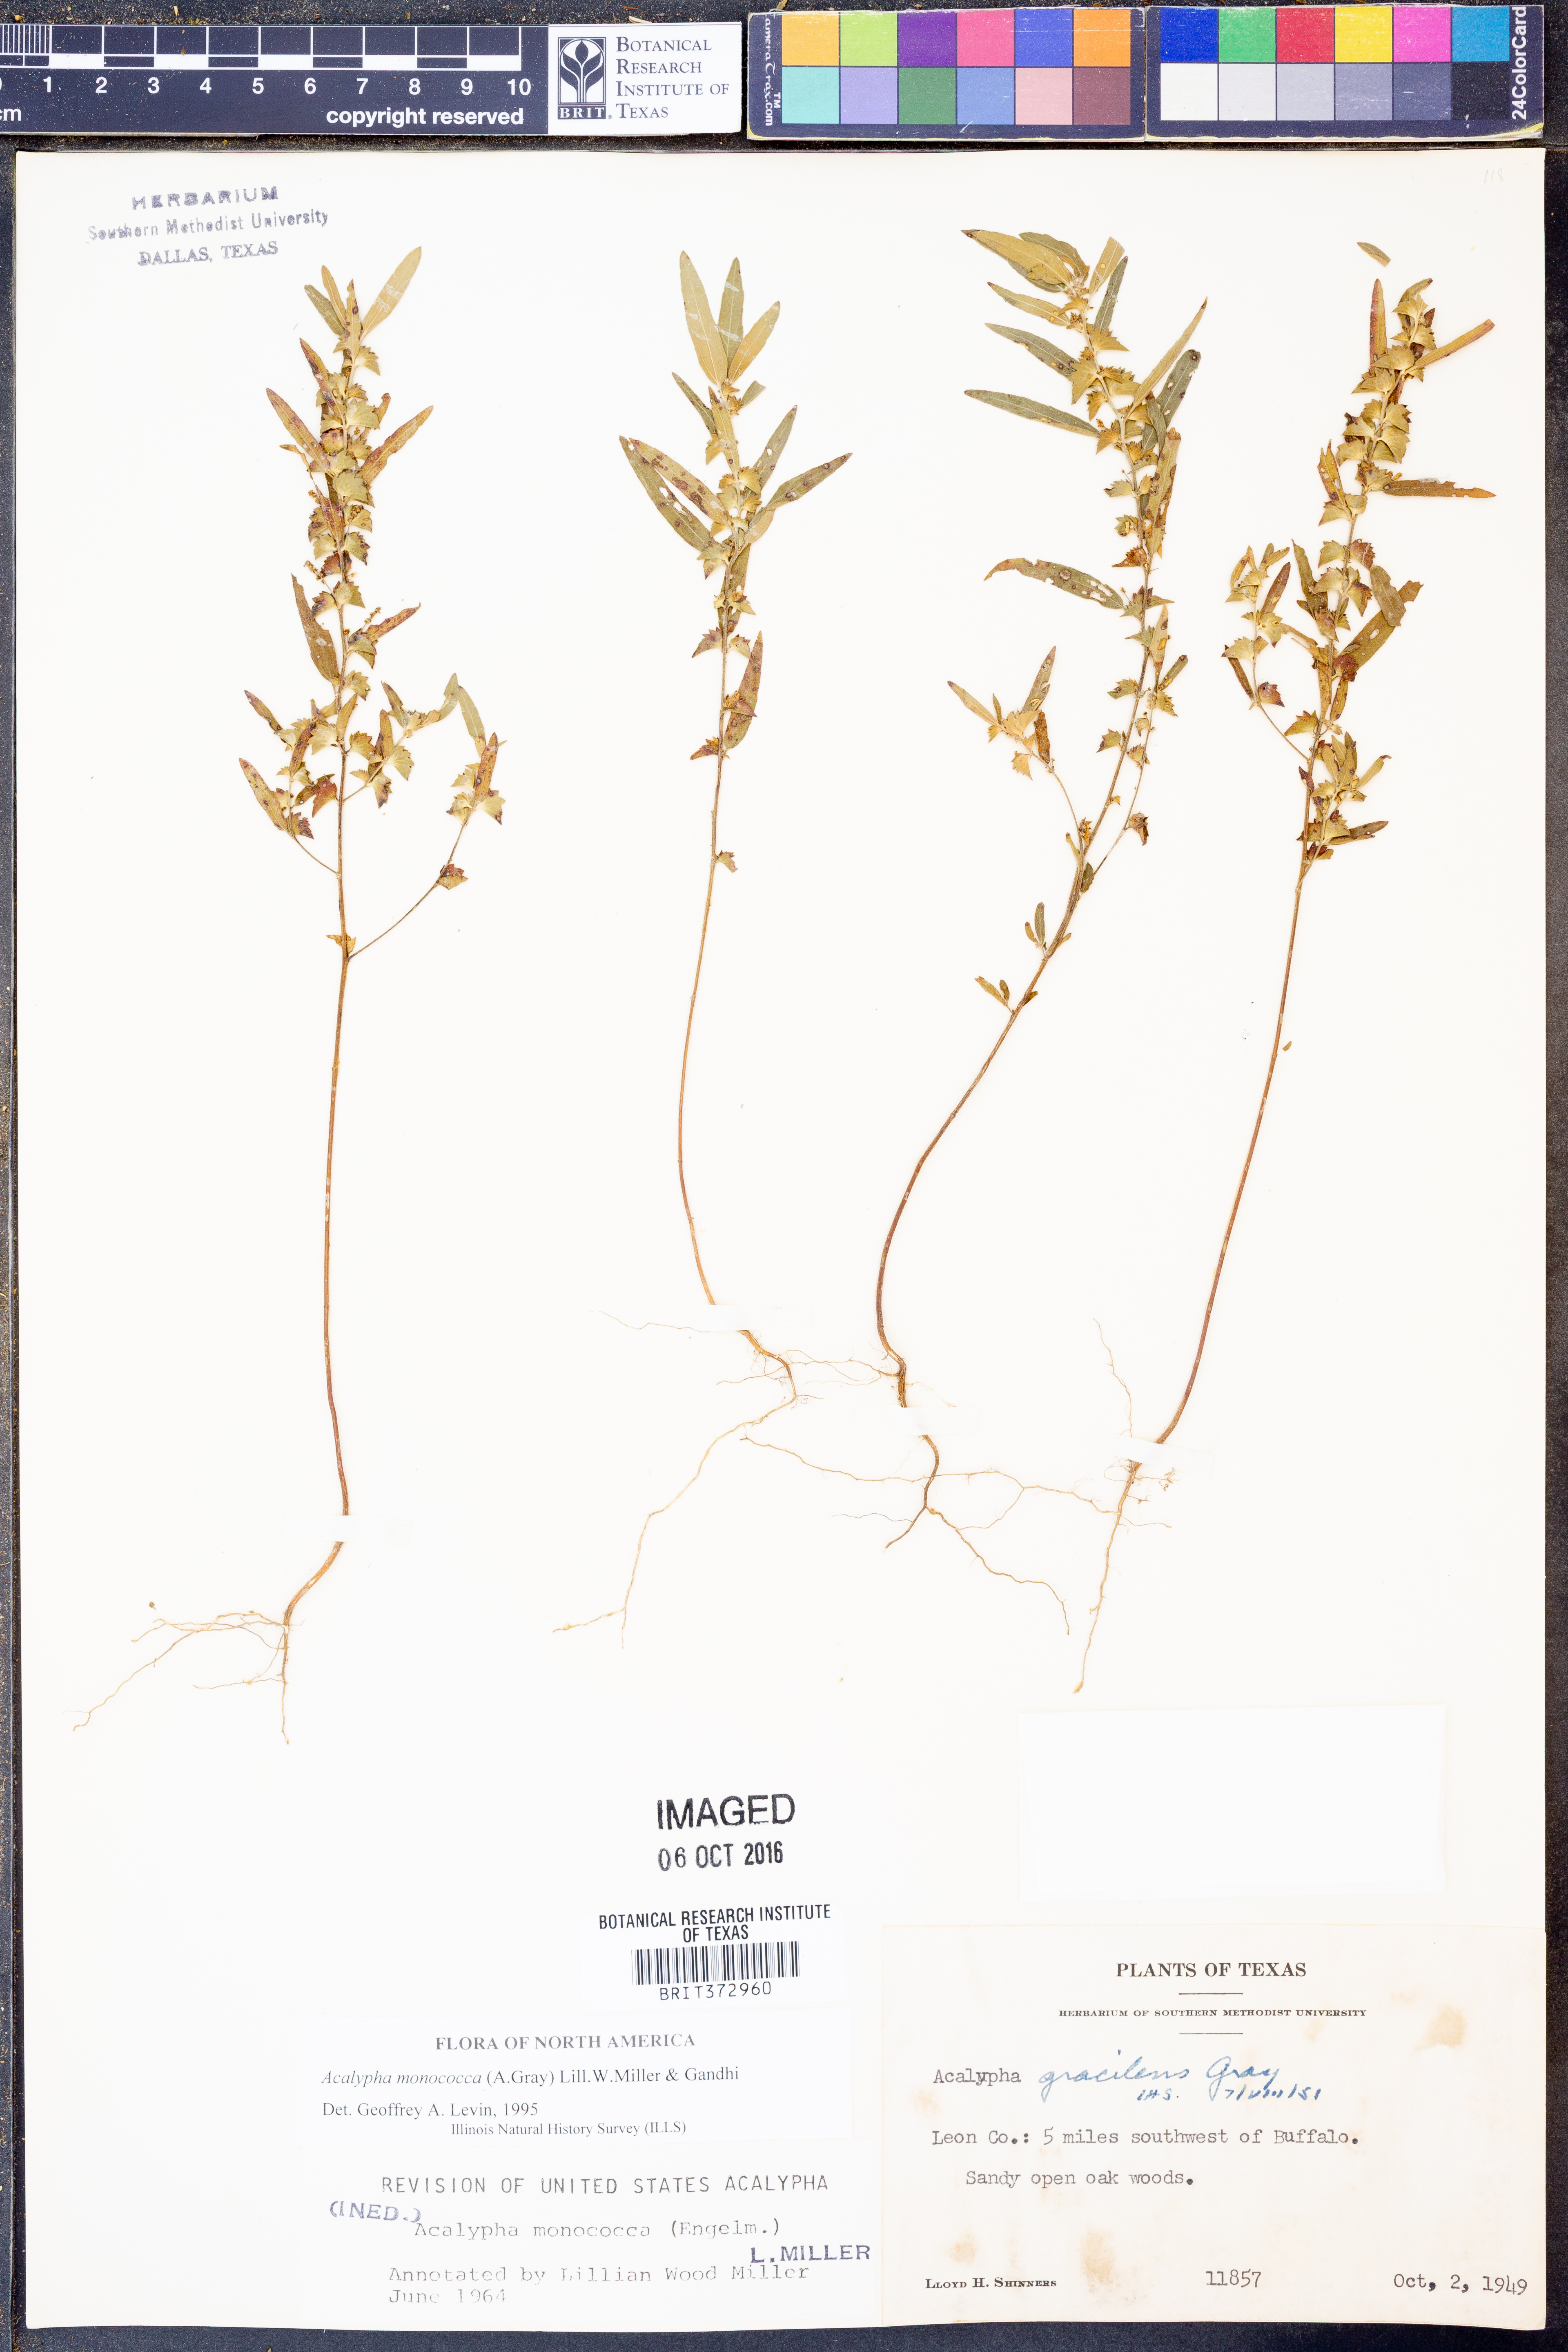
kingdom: Plantae
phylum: Tracheophyta
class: Magnoliopsida
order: Malpighiales
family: Euphorbiaceae
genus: Acalypha
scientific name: Acalypha monococca
